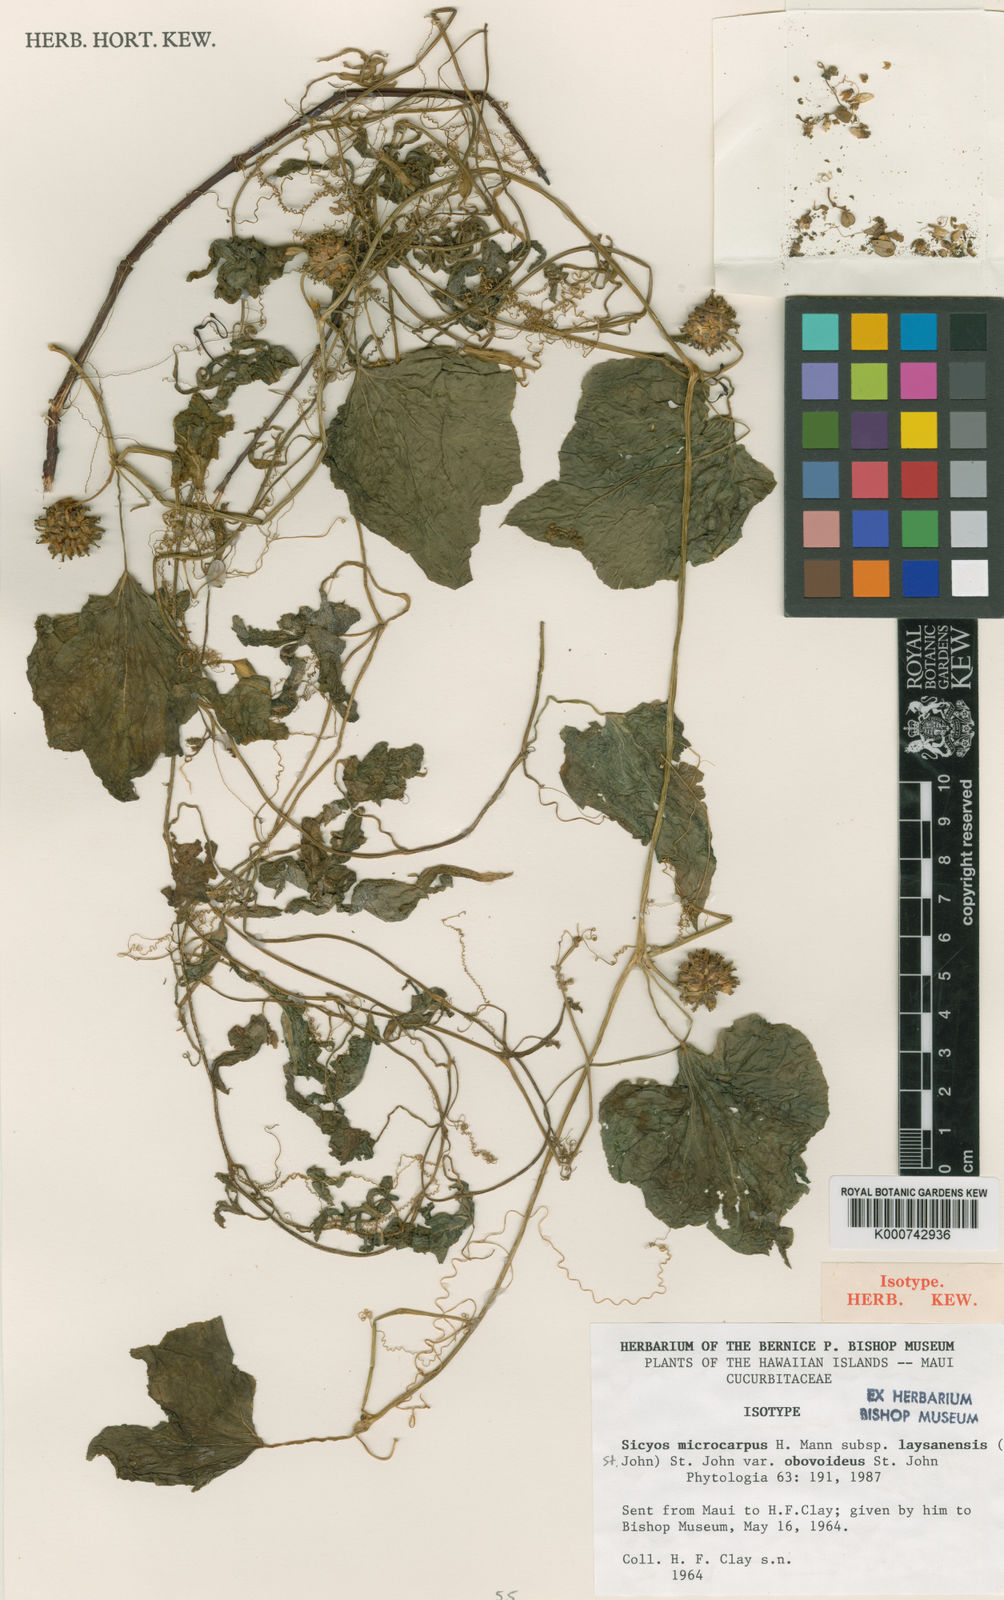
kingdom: Plantae
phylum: Tracheophyta
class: Magnoliopsida
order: Cucurbitales
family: Cucurbitaceae
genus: Sicyos
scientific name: Sicyos pachycarpa
